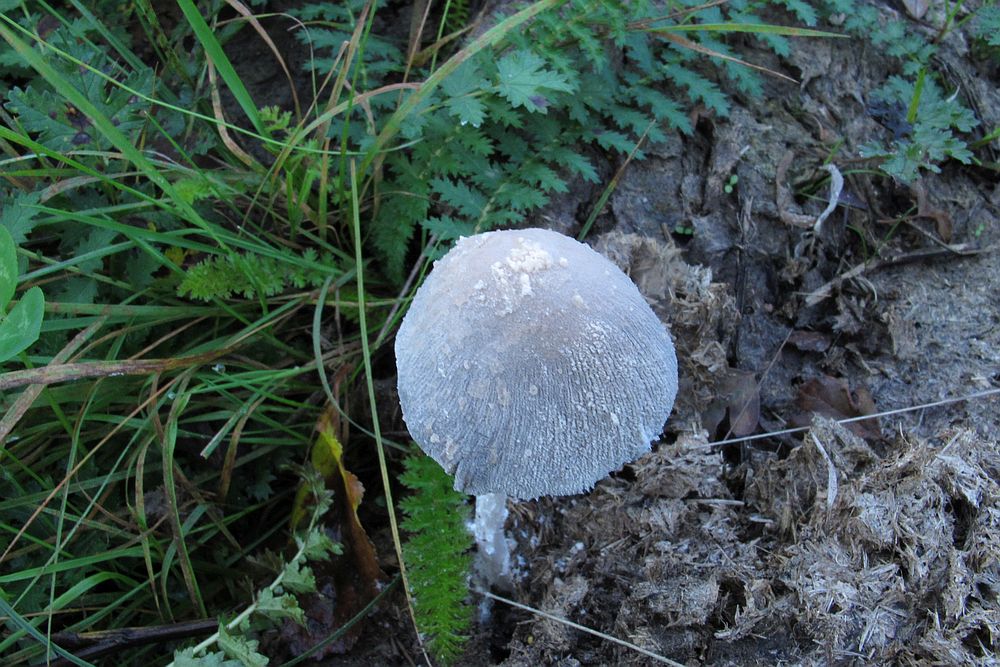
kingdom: Fungi
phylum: Basidiomycota
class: Agaricomycetes
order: Agaricales
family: Psathyrellaceae
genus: Coprinopsis
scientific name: Coprinopsis nivea
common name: snehvid blækhat
